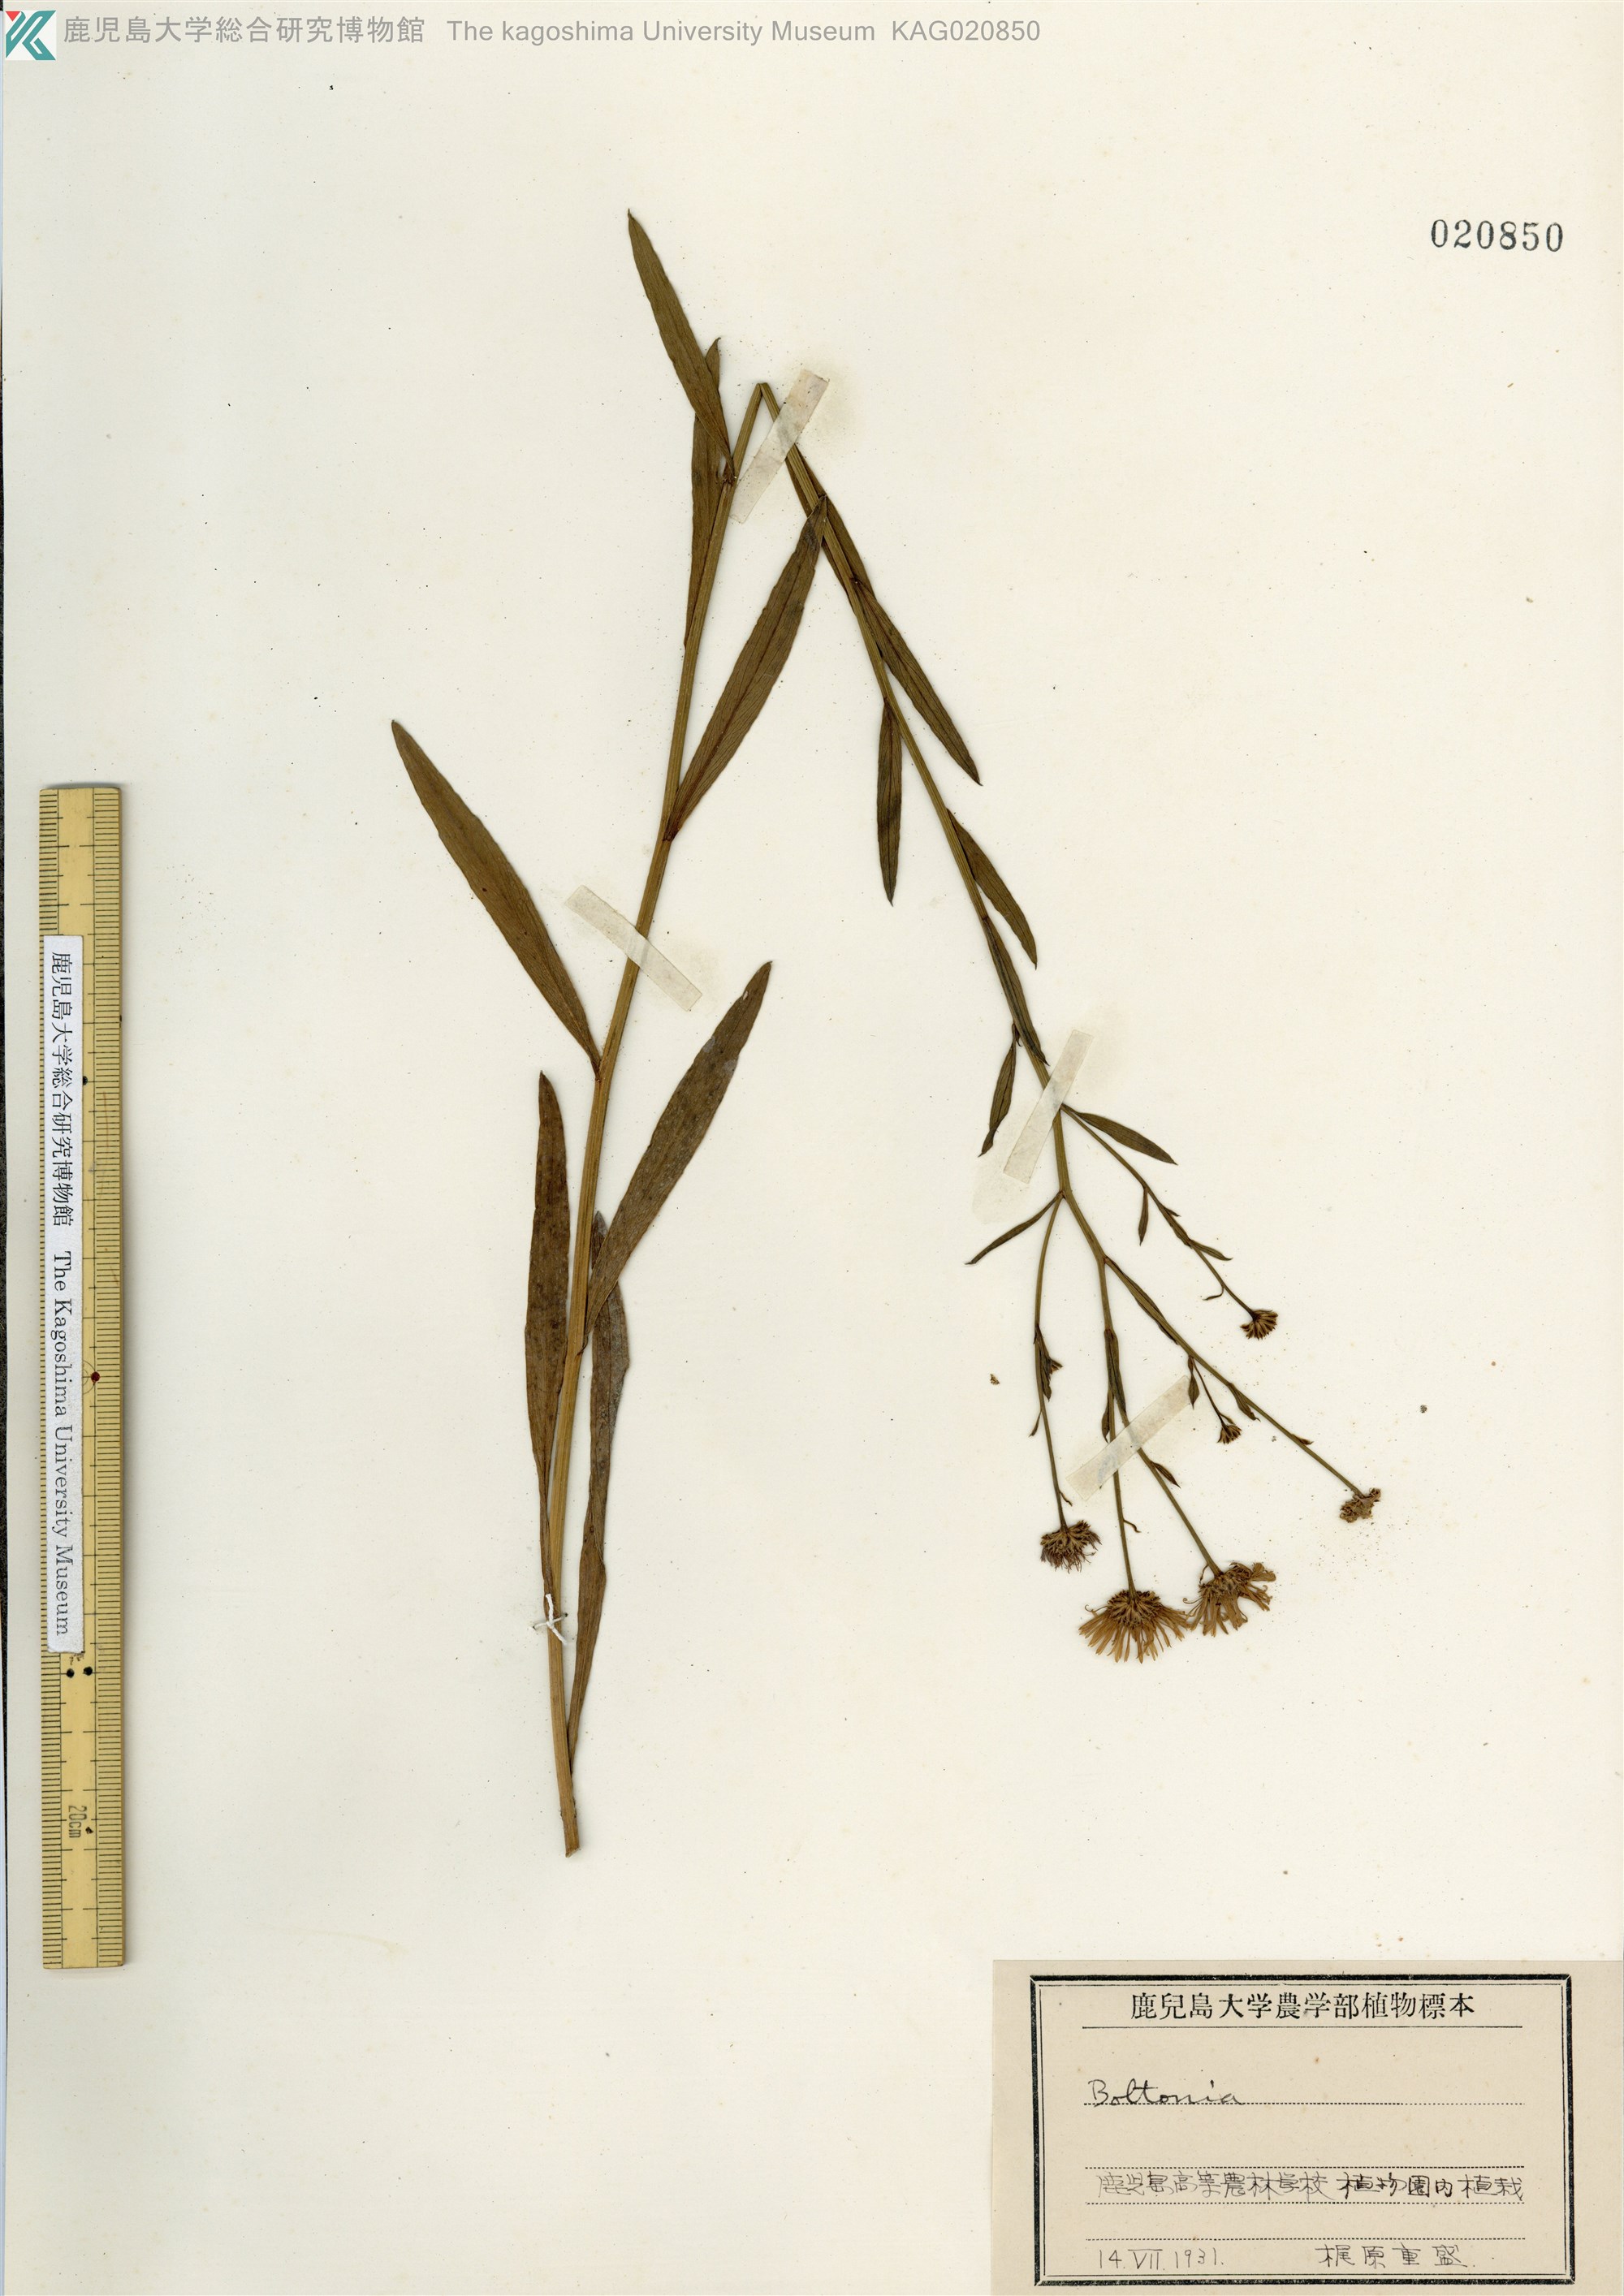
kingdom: Plantae
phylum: Tracheophyta
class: Magnoliopsida
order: Asterales
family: Asteraceae
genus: Boltonia
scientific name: Boltonia asteroides
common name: False chamomile
